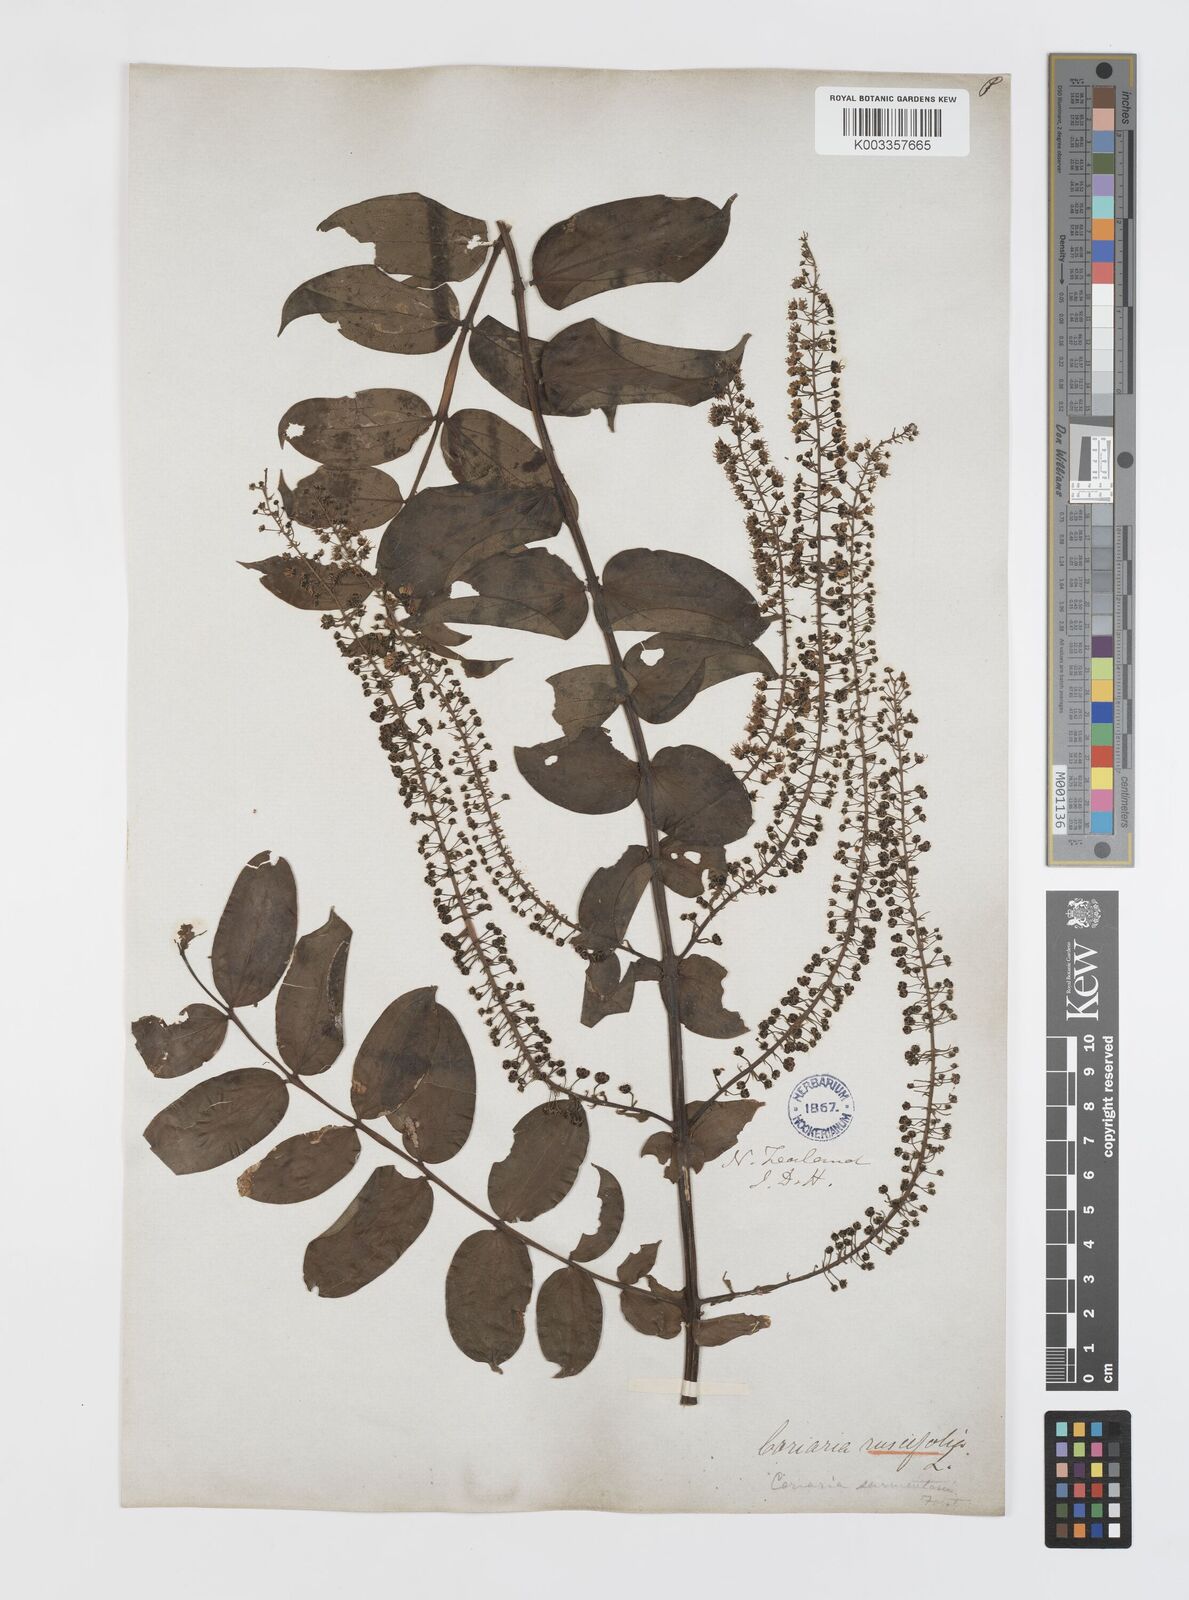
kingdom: Plantae
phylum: Tracheophyta
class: Magnoliopsida
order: Cucurbitales
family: Coriariaceae
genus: Coriaria
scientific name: Coriaria ruscifolia
